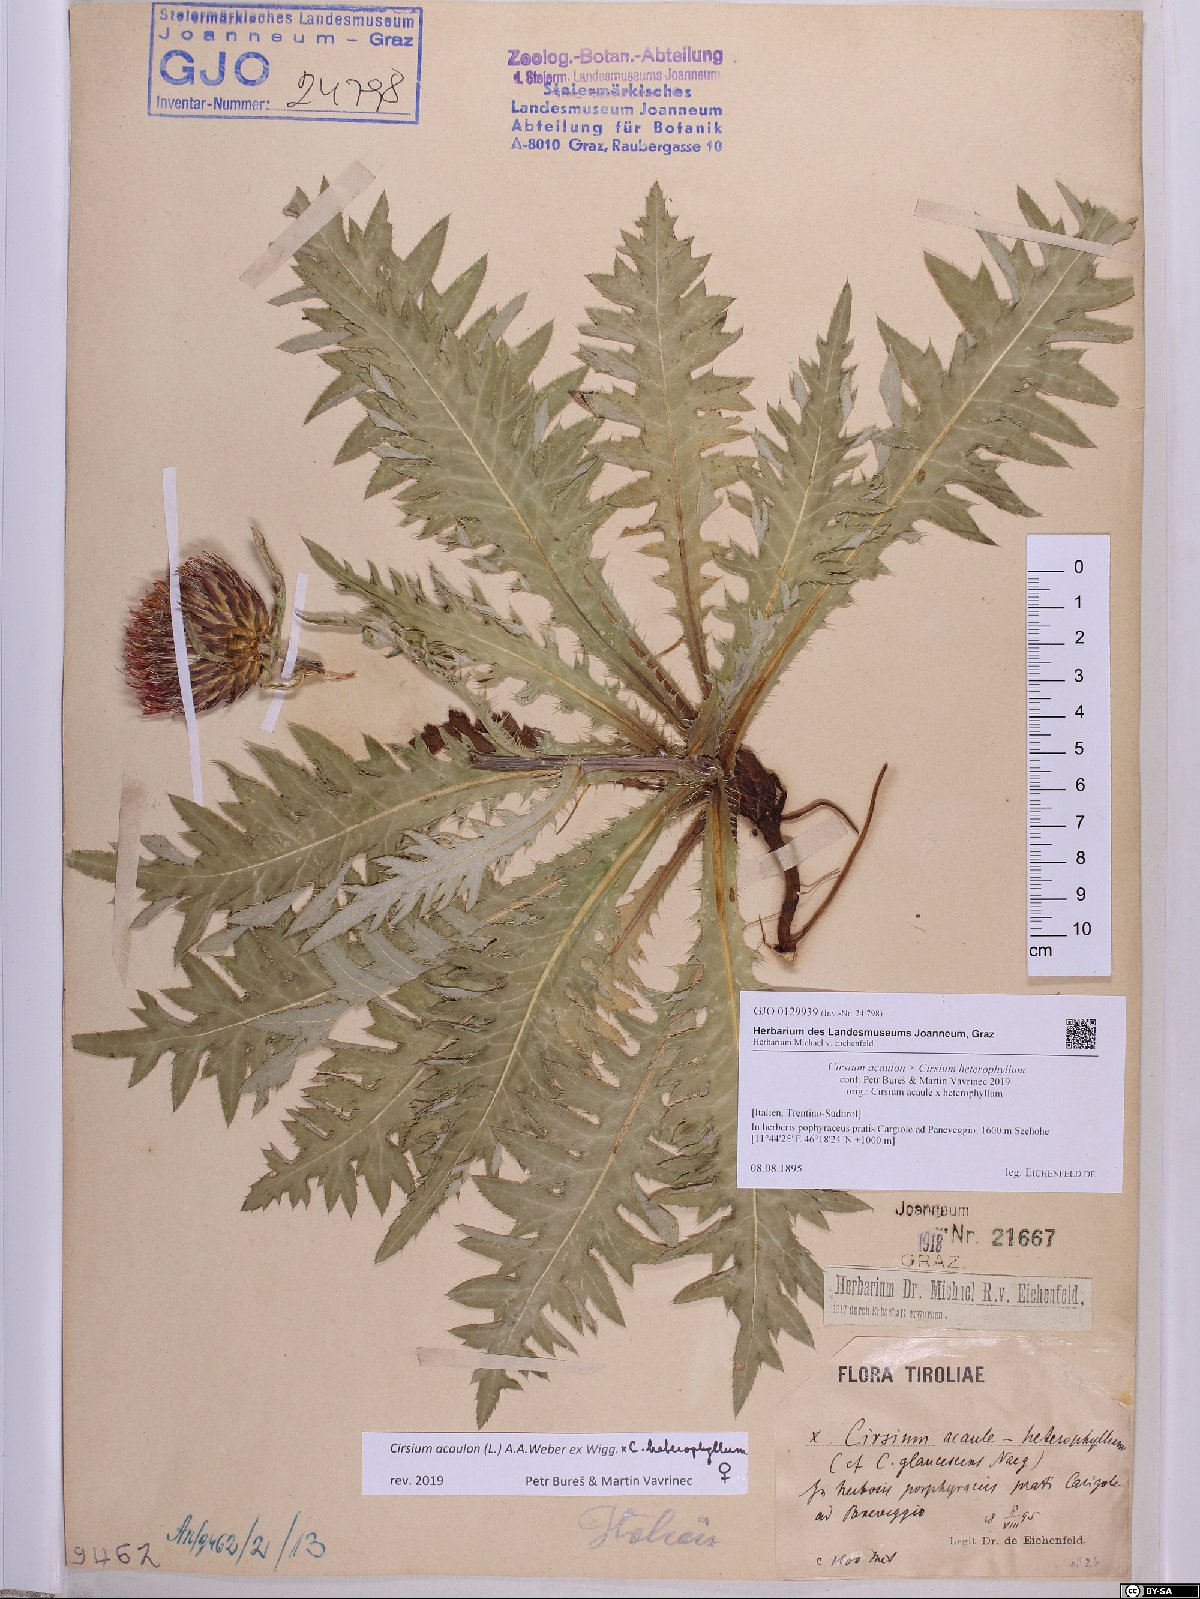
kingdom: Plantae
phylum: Tracheophyta
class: Magnoliopsida
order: Asterales
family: Asteraceae
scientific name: Asteraceae
